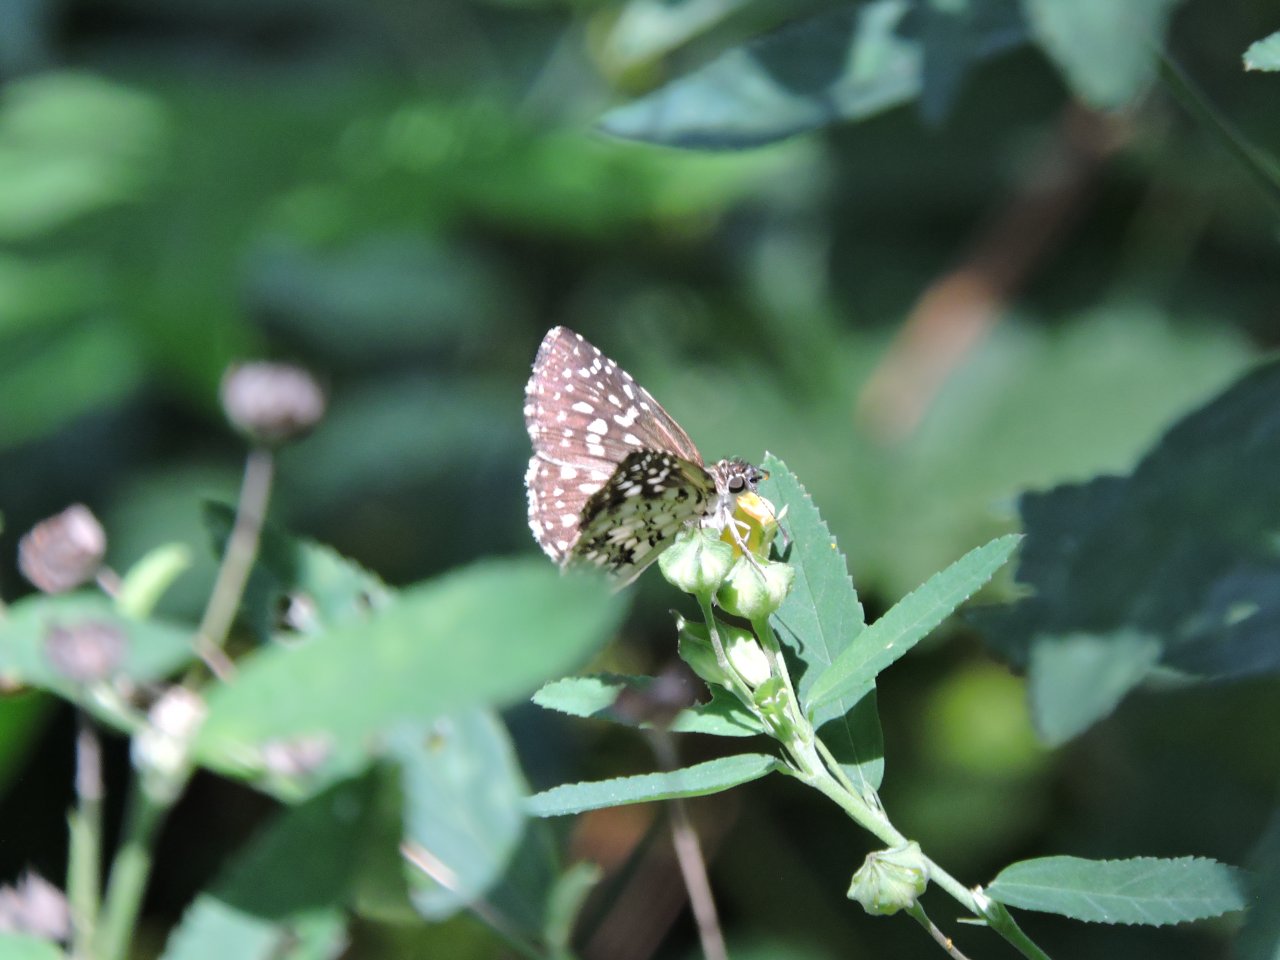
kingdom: Animalia
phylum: Arthropoda
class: Insecta
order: Lepidoptera
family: Hesperiidae
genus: Pyrgus
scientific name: Pyrgus oileus
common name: Tropical Checkered-Skipper
